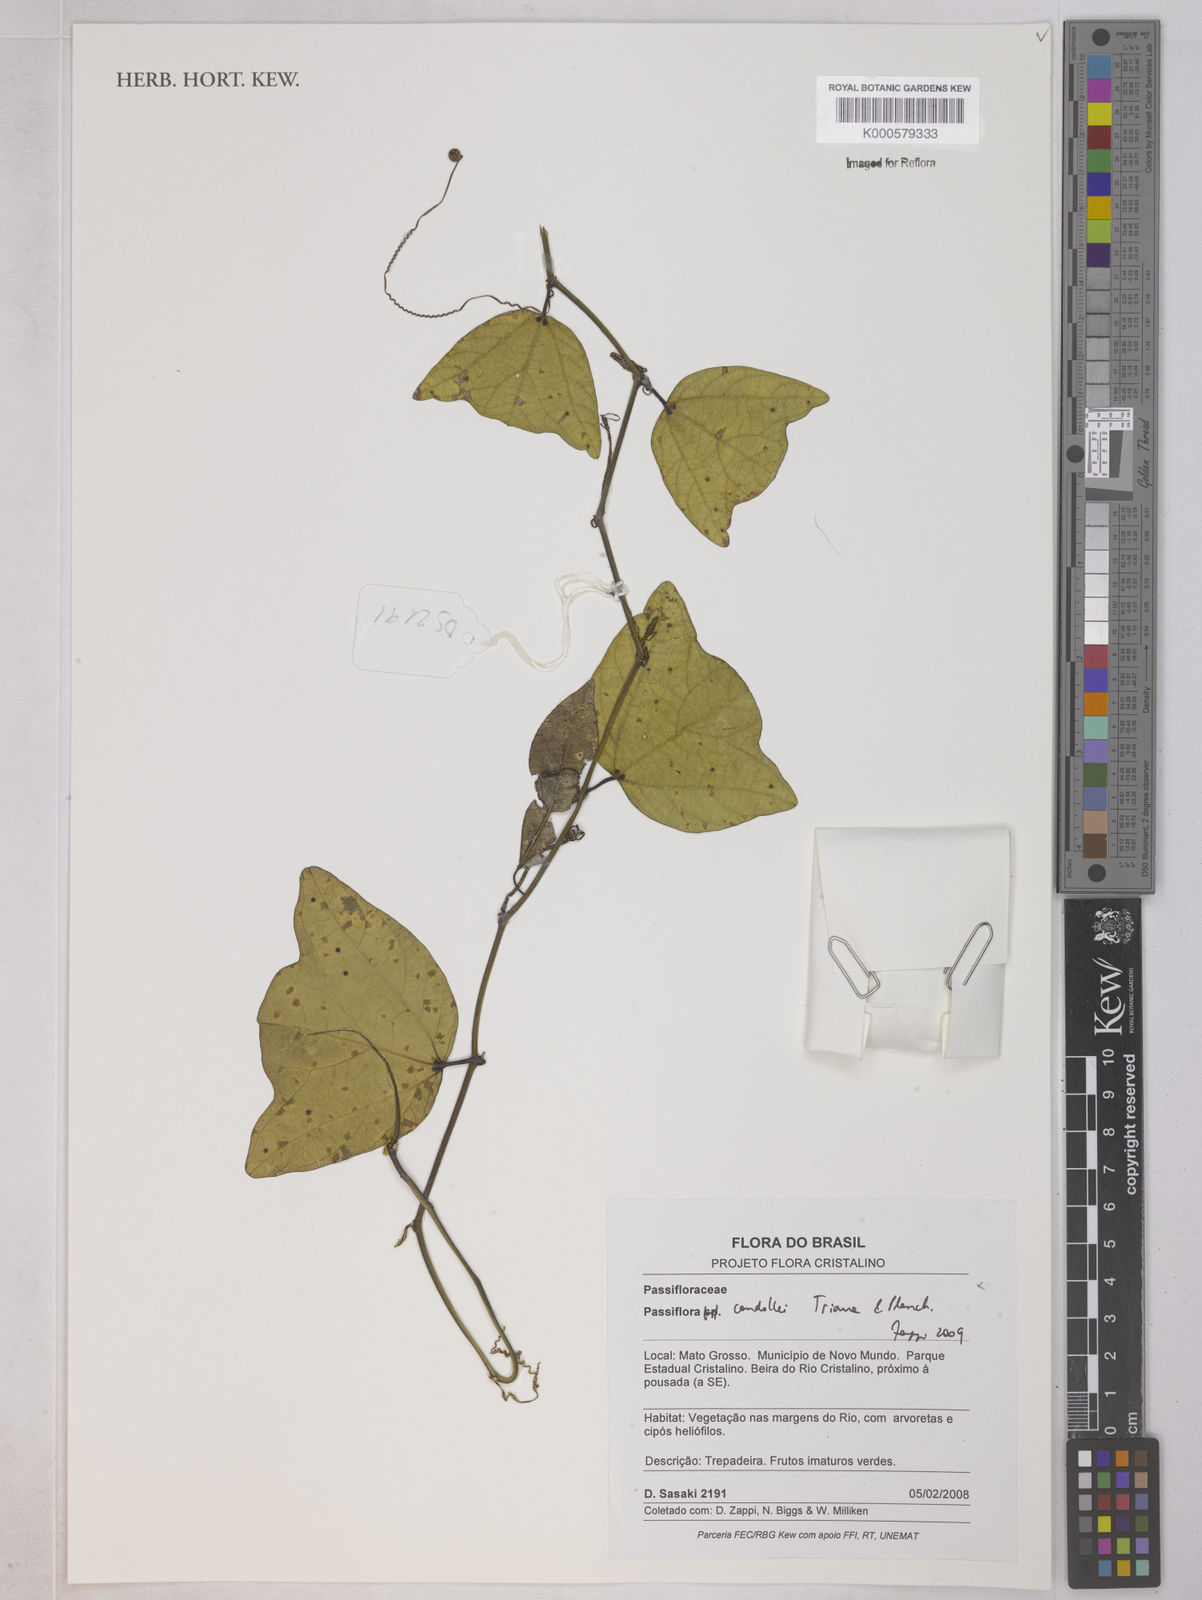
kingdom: Plantae
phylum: Tracheophyta
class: Magnoliopsida
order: Malpighiales
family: Passifloraceae
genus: Passiflora
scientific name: Passiflora candollei
